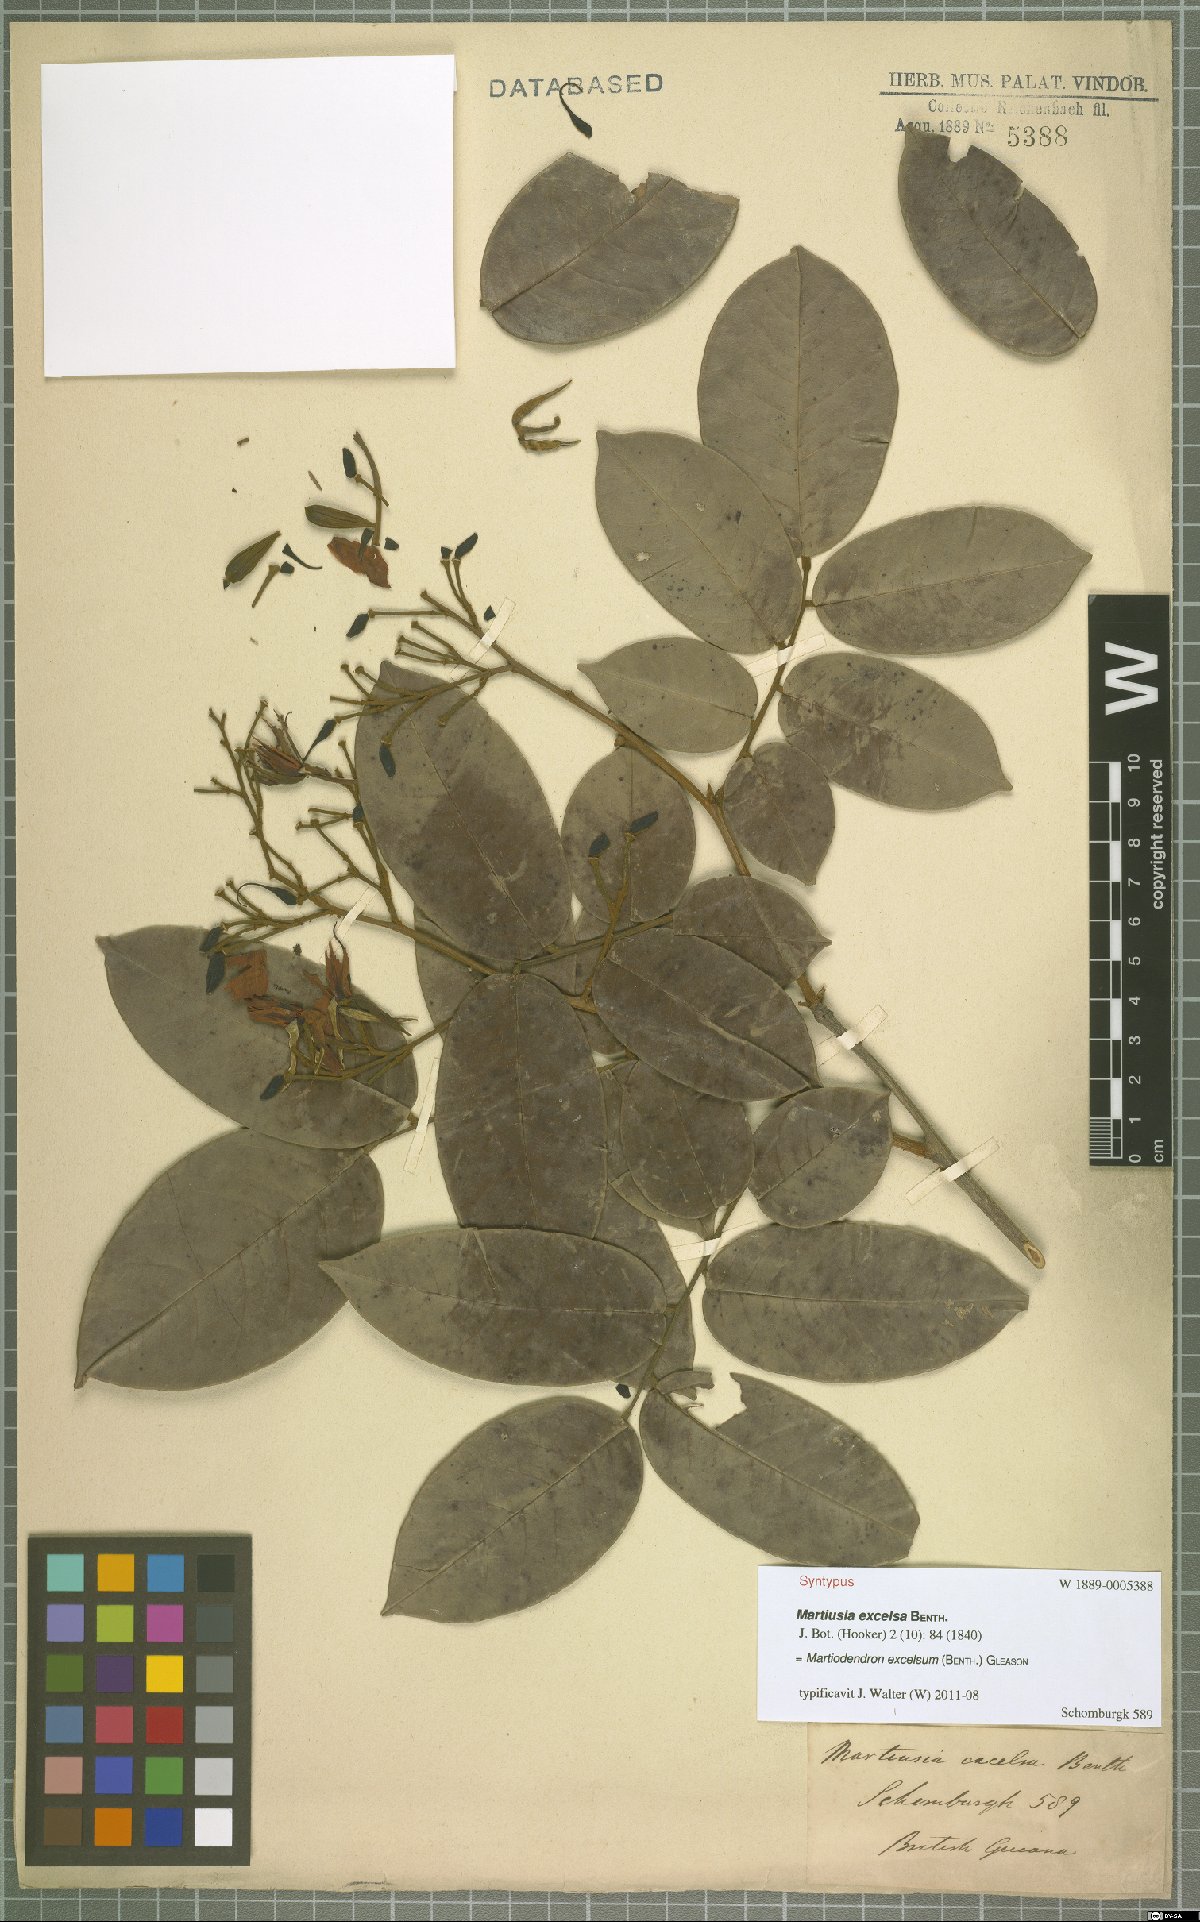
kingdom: Plantae
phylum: Tracheophyta
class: Magnoliopsida
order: Fabales
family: Fabaceae
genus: Martiodendron
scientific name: Martiodendron excelsum
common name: Tatabuballi
